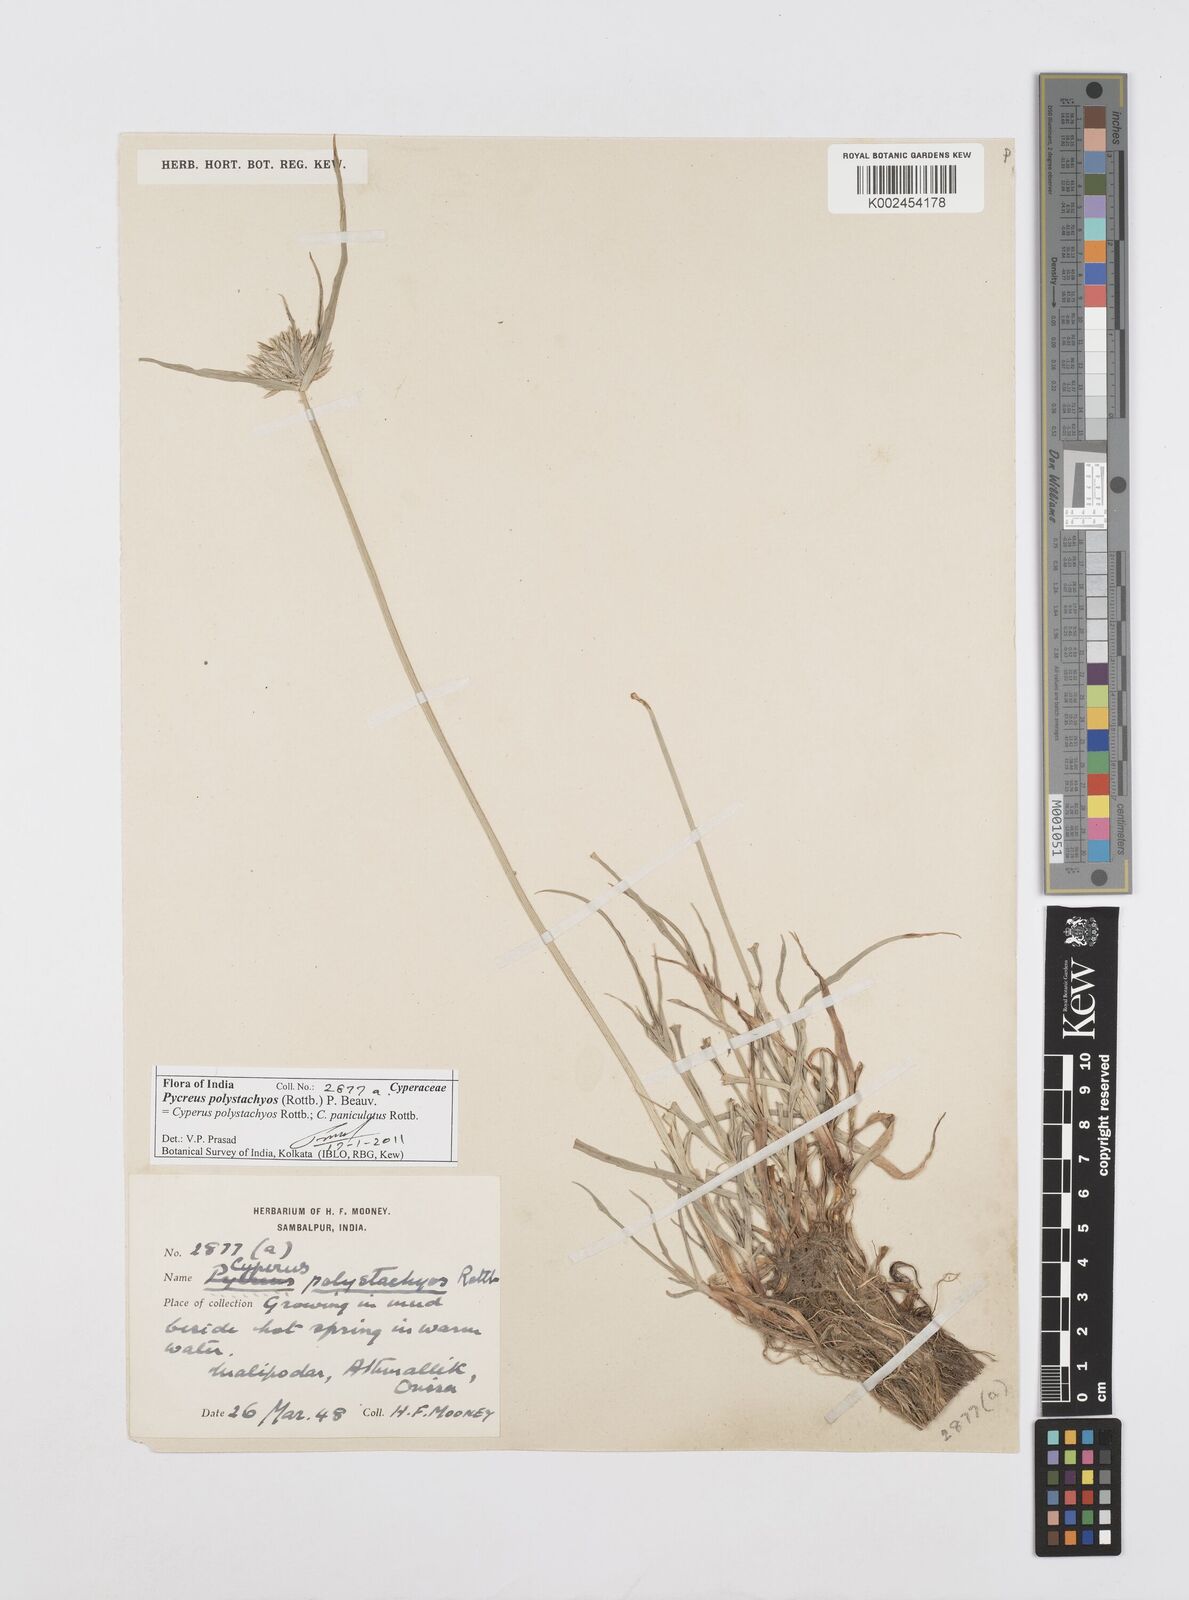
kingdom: Plantae
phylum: Tracheophyta
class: Liliopsida
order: Poales
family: Cyperaceae
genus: Cyperus
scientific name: Cyperus polystachyos
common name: Bunchy flat sedge
